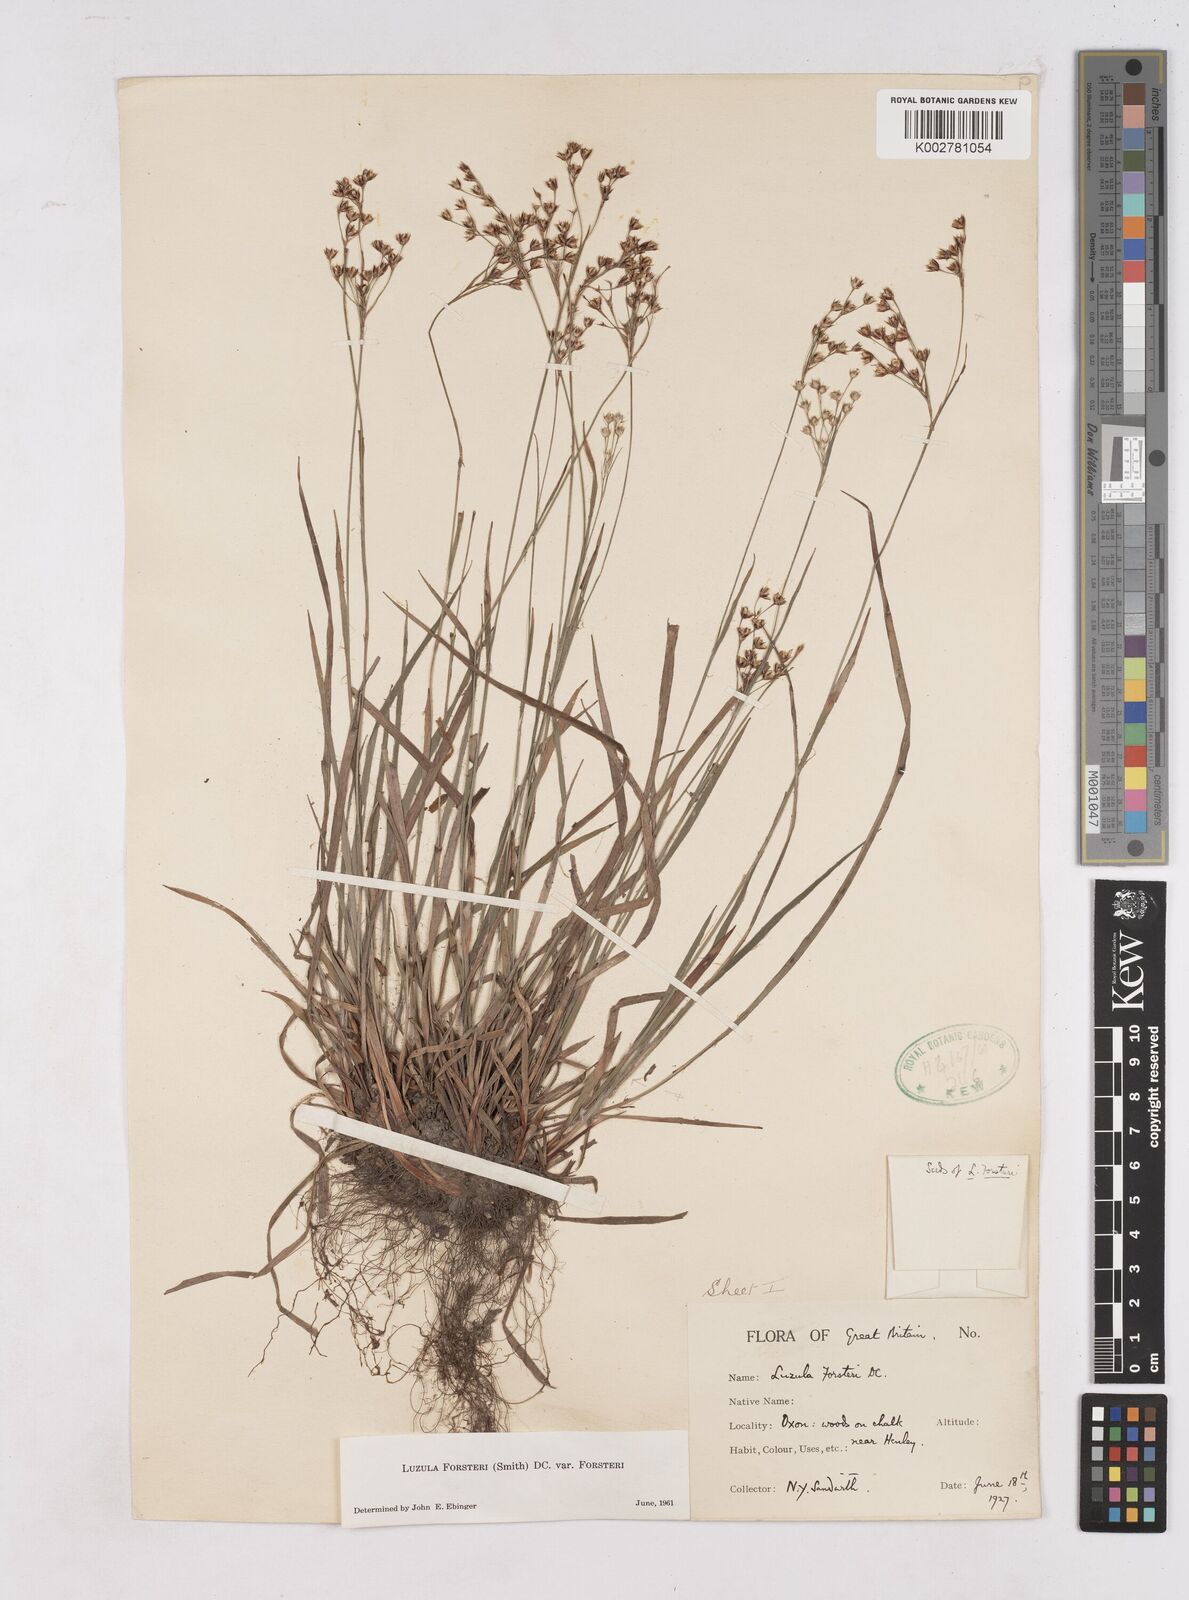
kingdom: Plantae
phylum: Tracheophyta
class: Liliopsida
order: Poales
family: Juncaceae
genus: Luzula
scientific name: Luzula forsteri
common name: Southern wood-rush
